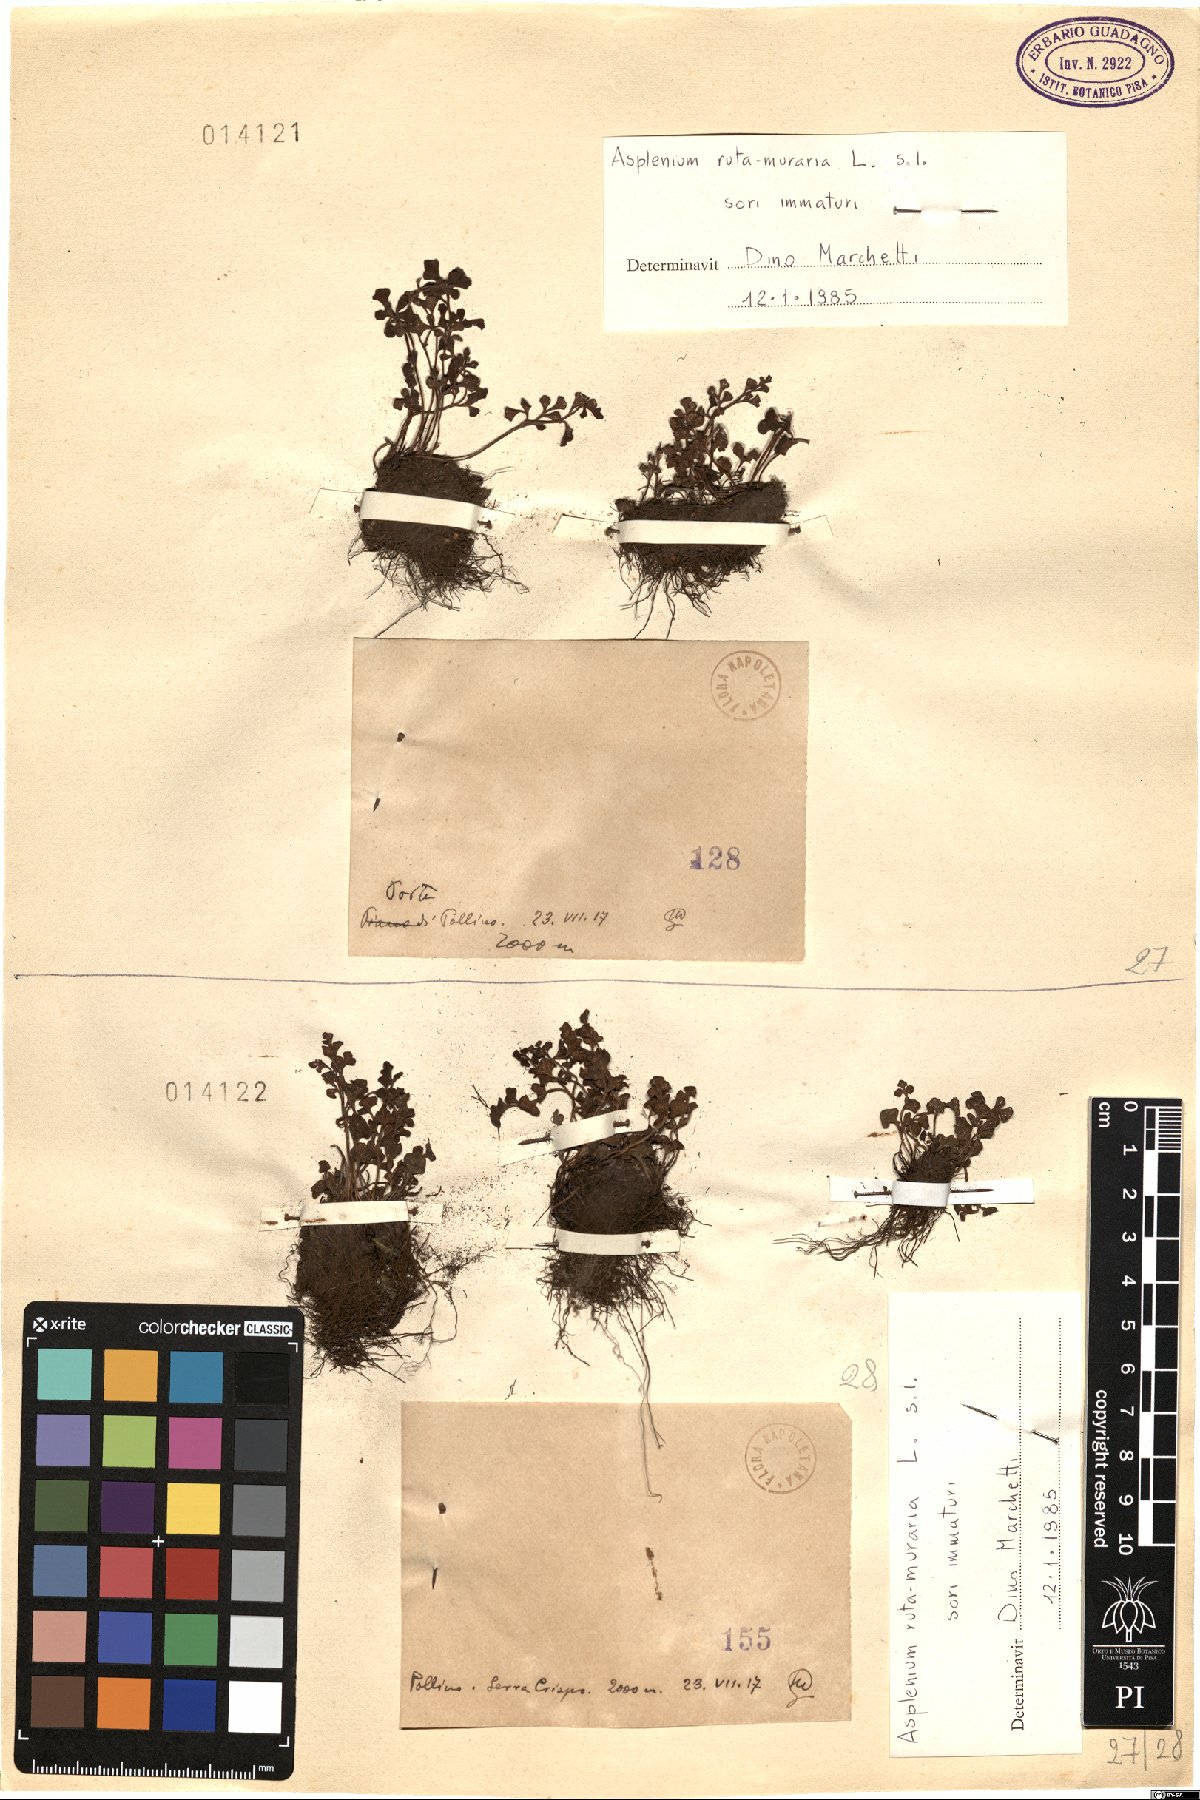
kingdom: Plantae
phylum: Tracheophyta
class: Polypodiopsida
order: Polypodiales
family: Aspleniaceae
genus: Asplenium
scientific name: Asplenium ruta-muraria
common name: Wall-rue
